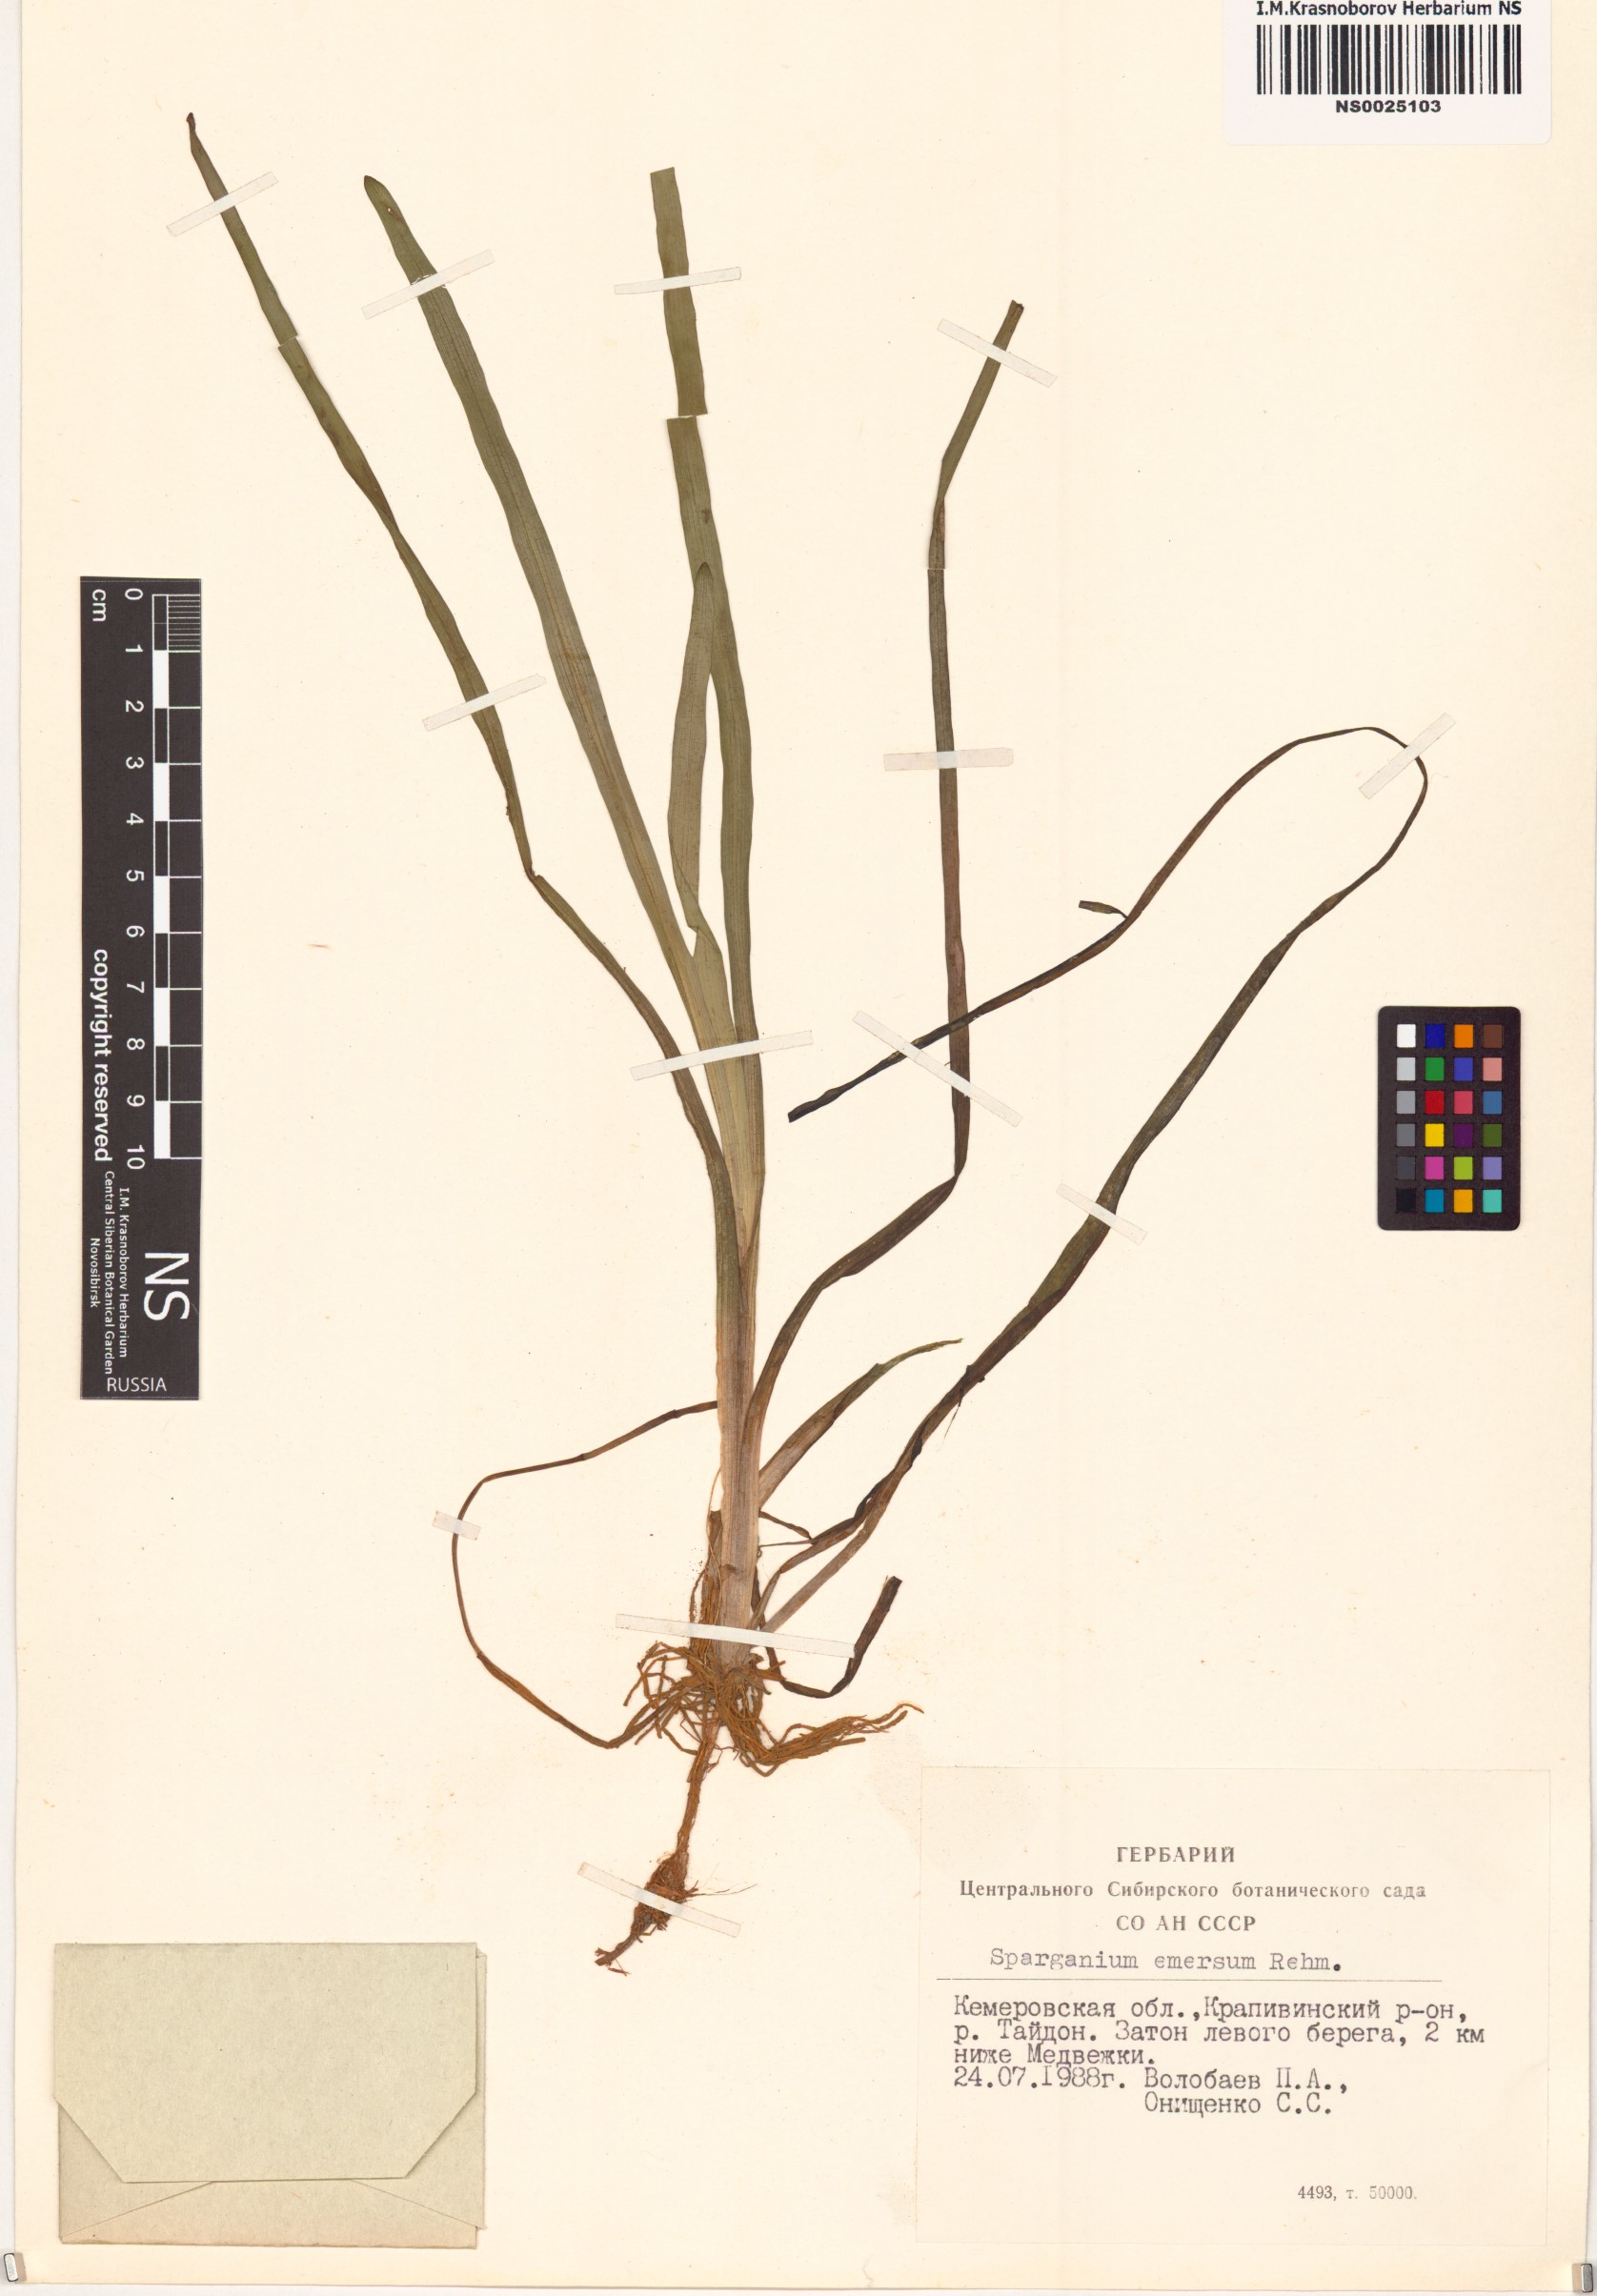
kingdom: Plantae
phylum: Tracheophyta
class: Liliopsida
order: Poales
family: Typhaceae
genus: Sparganium
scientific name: Sparganium emersum
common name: Unbranched bur-reed
